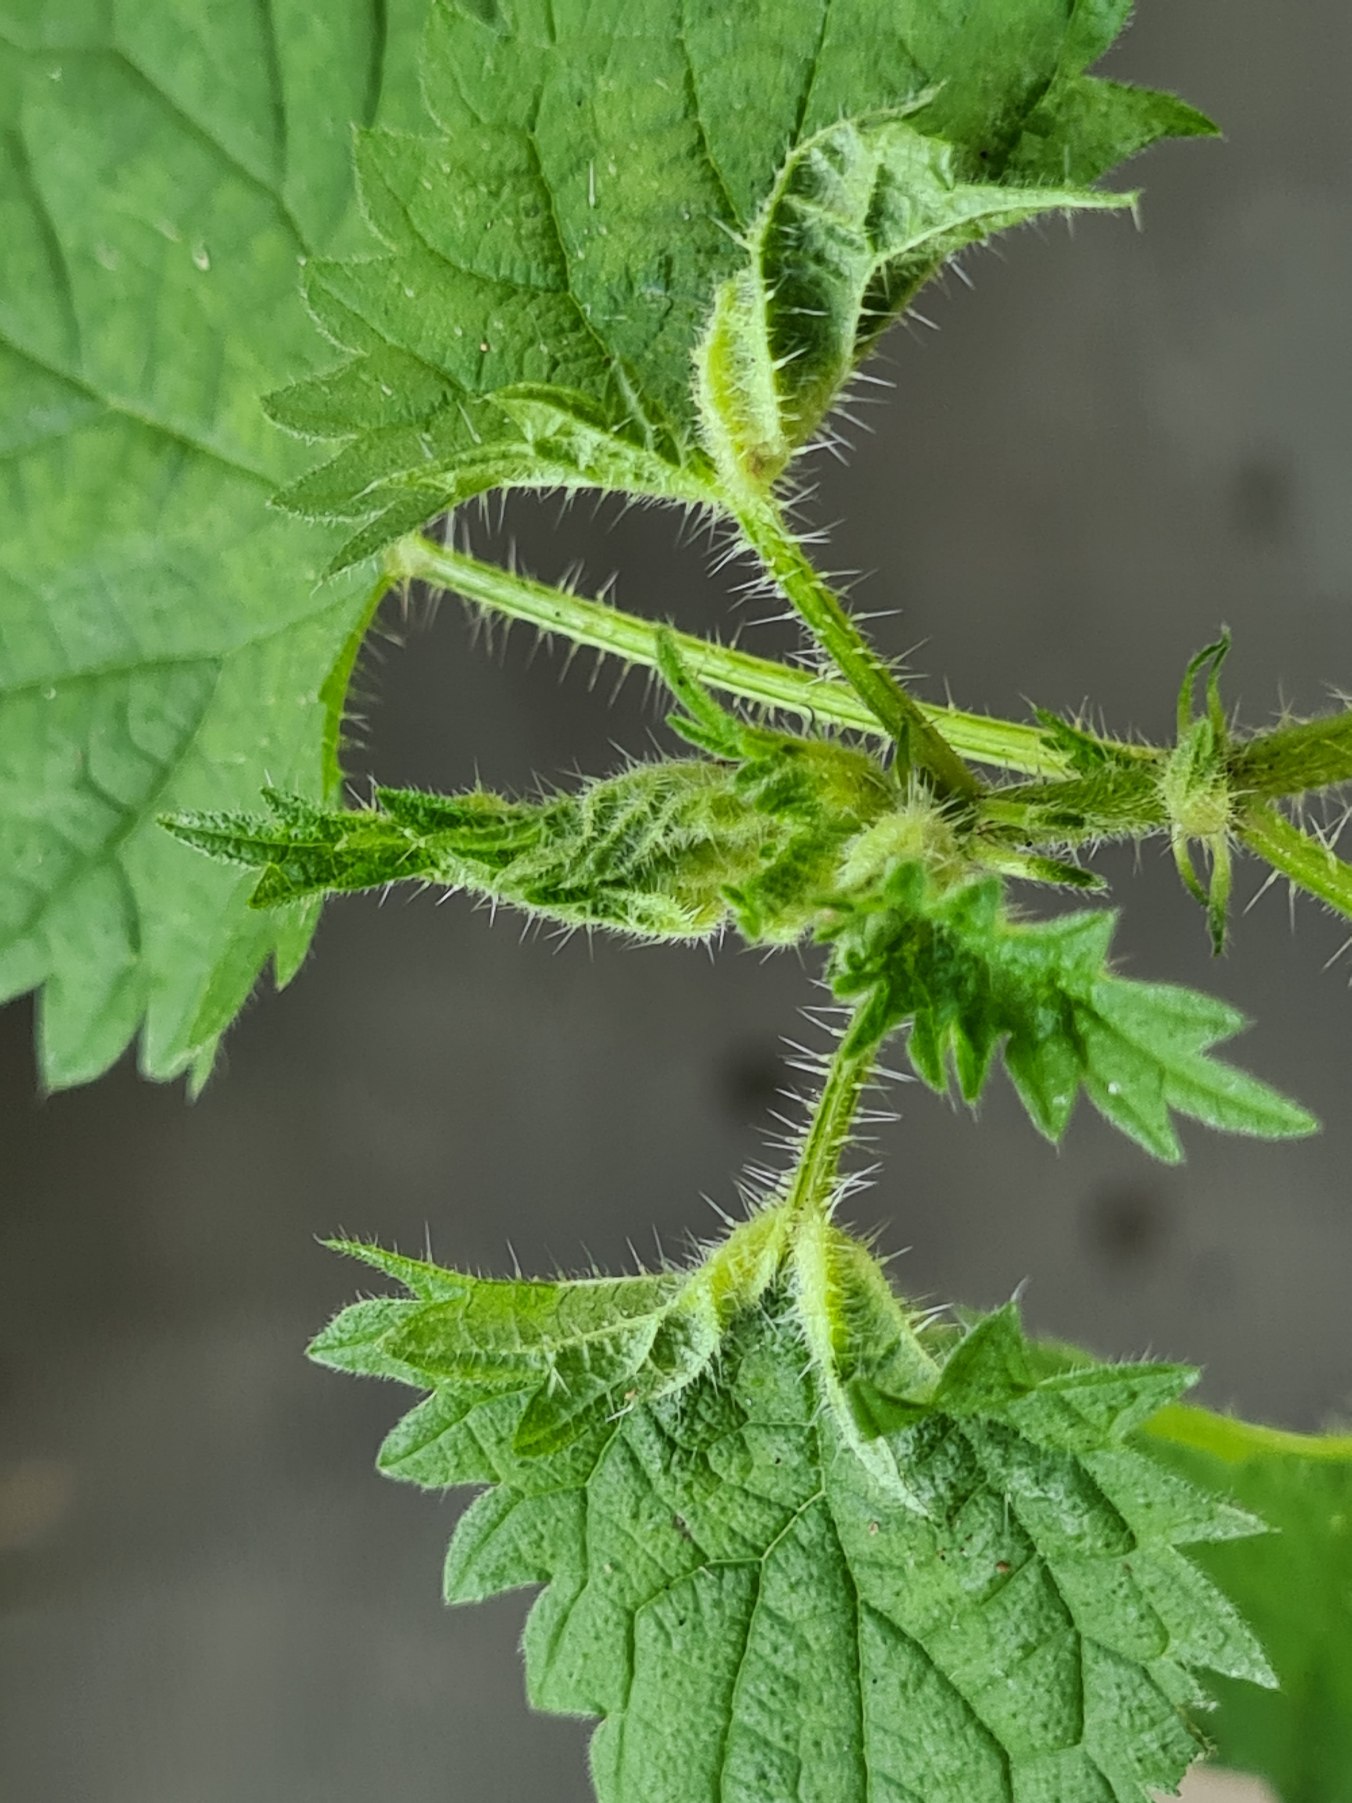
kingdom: Animalia
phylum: Arthropoda
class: Insecta
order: Diptera
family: Cecidomyiidae
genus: Dasineura
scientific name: Dasineura dioicae
